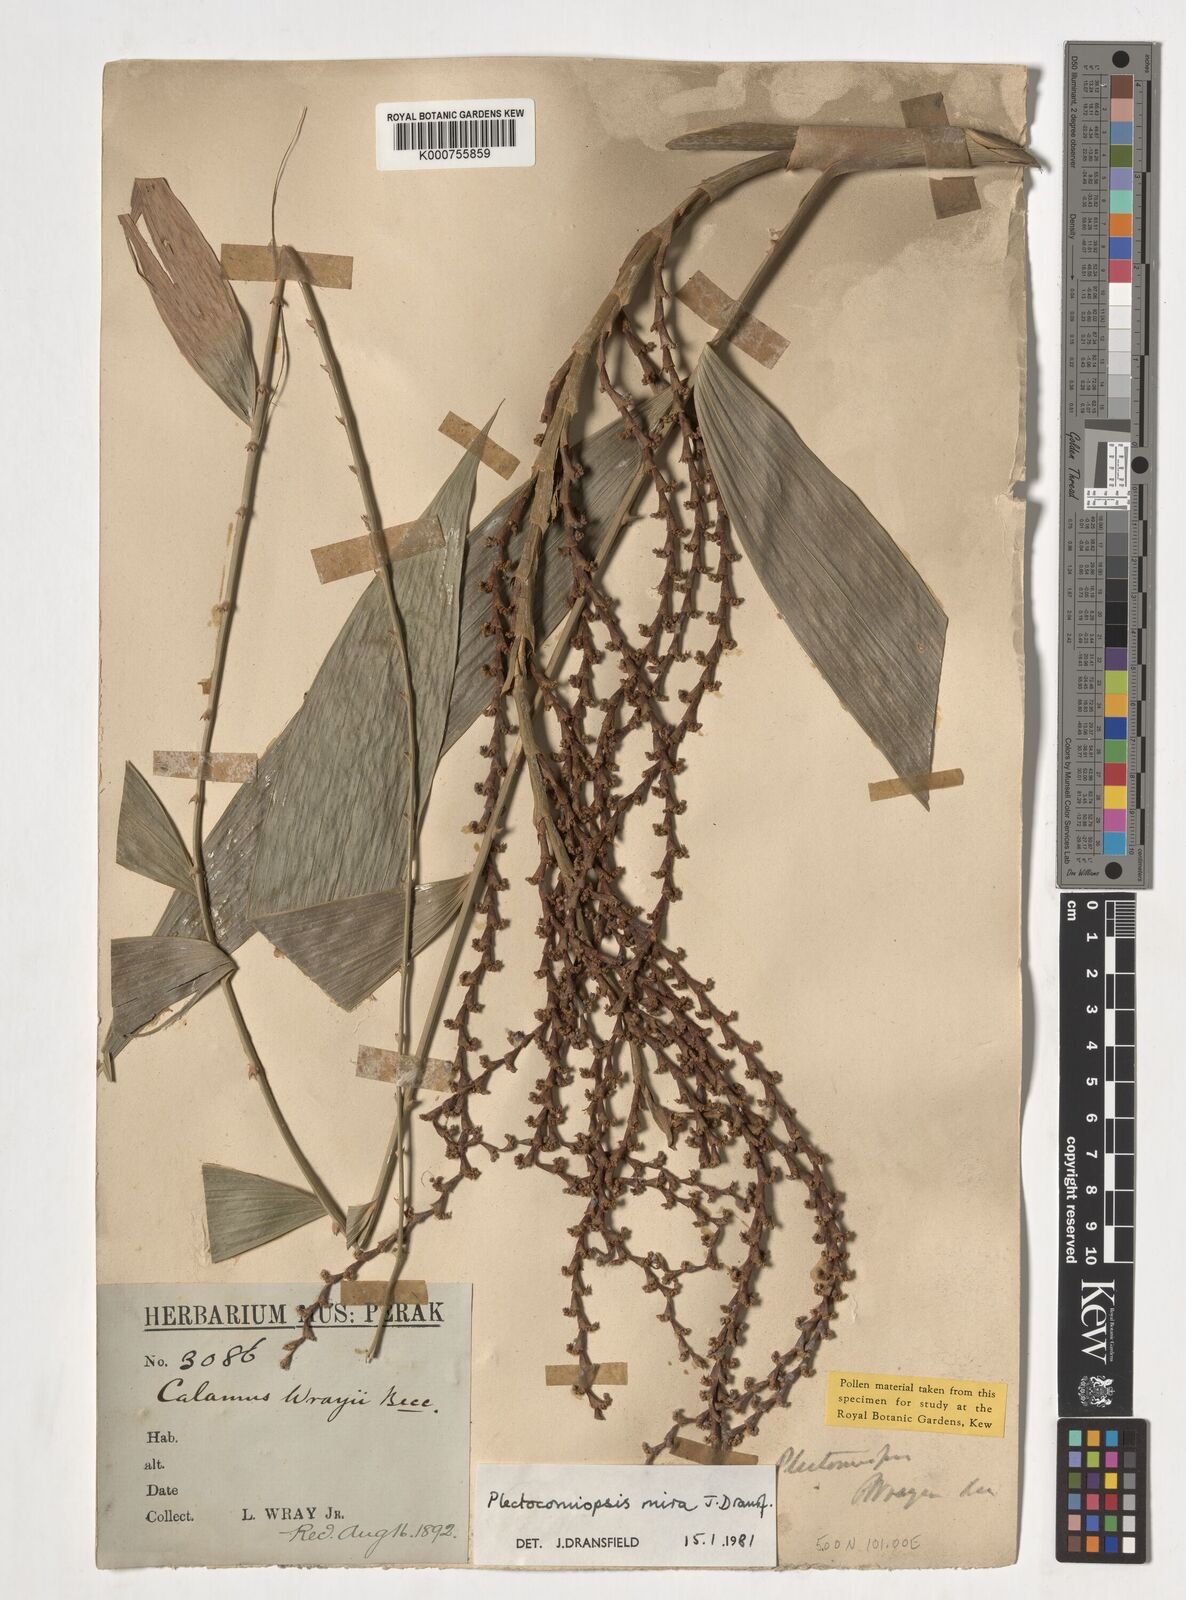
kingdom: Plantae
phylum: Tracheophyta
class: Liliopsida
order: Arecales
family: Arecaceae
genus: Plectocomiopsis
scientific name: Plectocomiopsis mira
